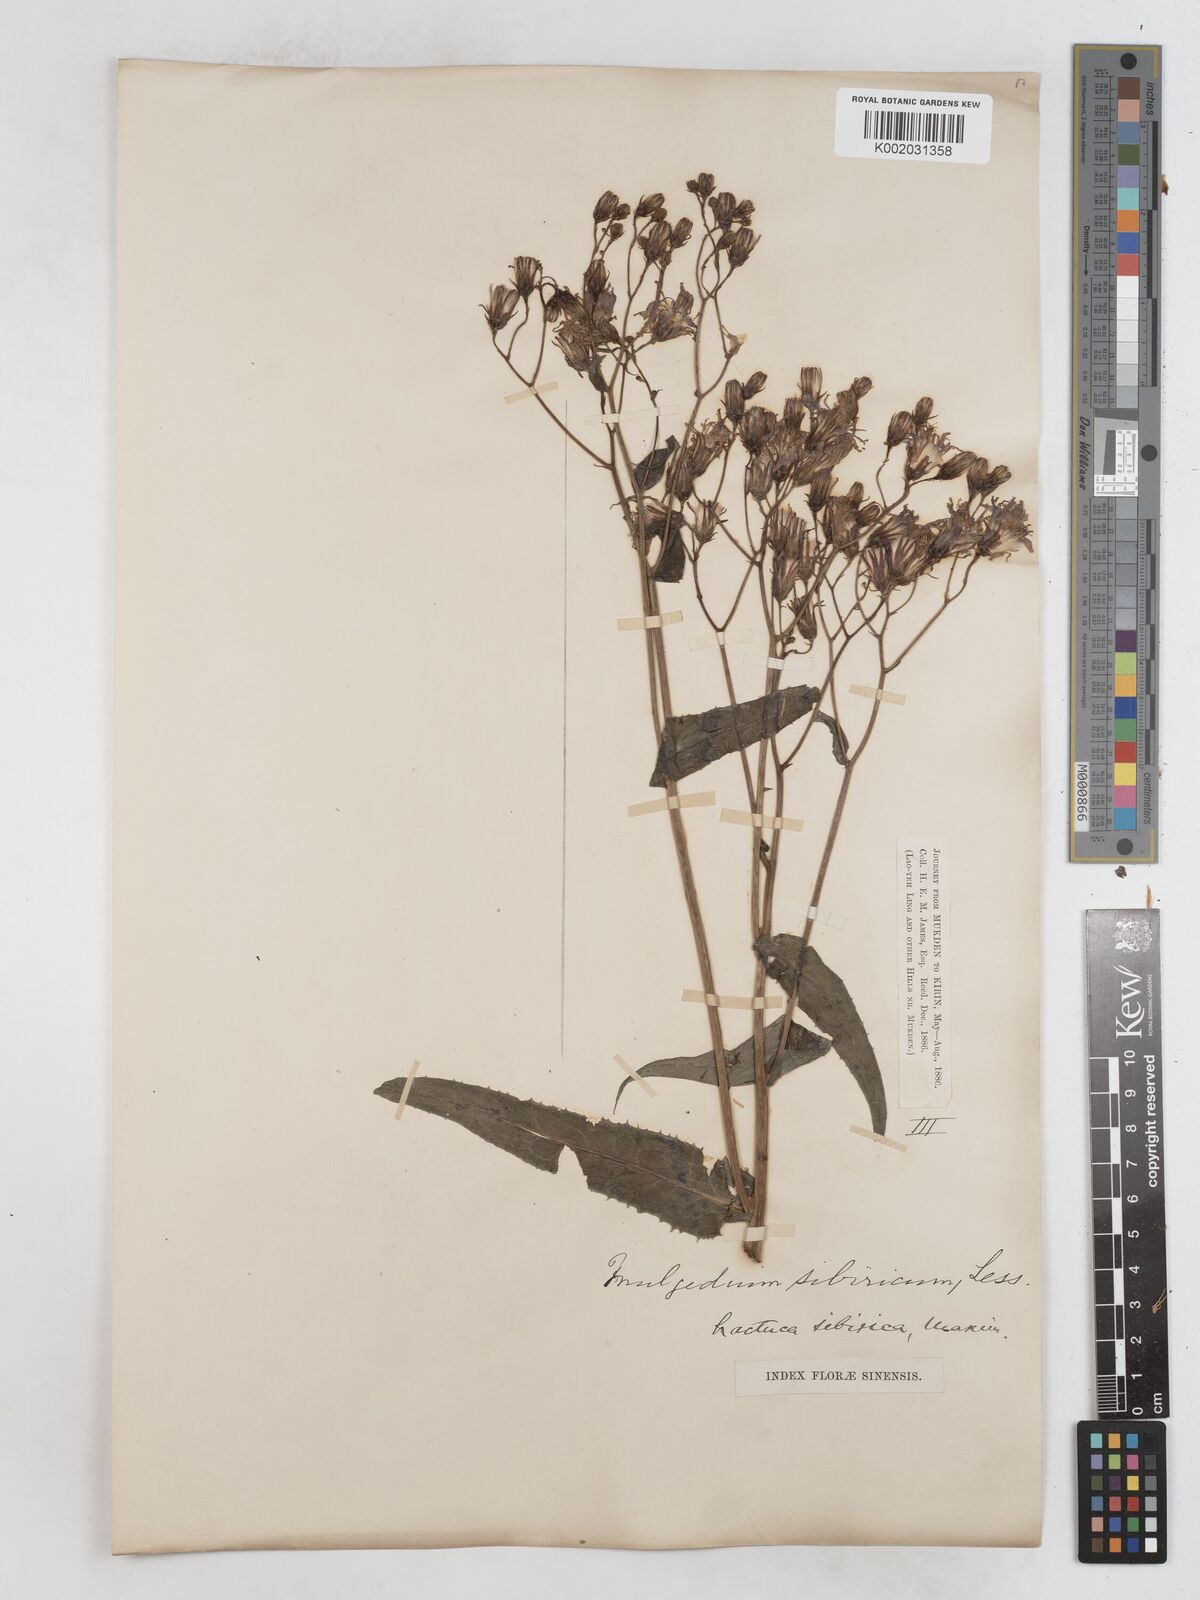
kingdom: Plantae
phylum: Tracheophyta
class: Magnoliopsida
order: Asterales
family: Asteraceae
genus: Lactuca
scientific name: Lactuca sibirica
